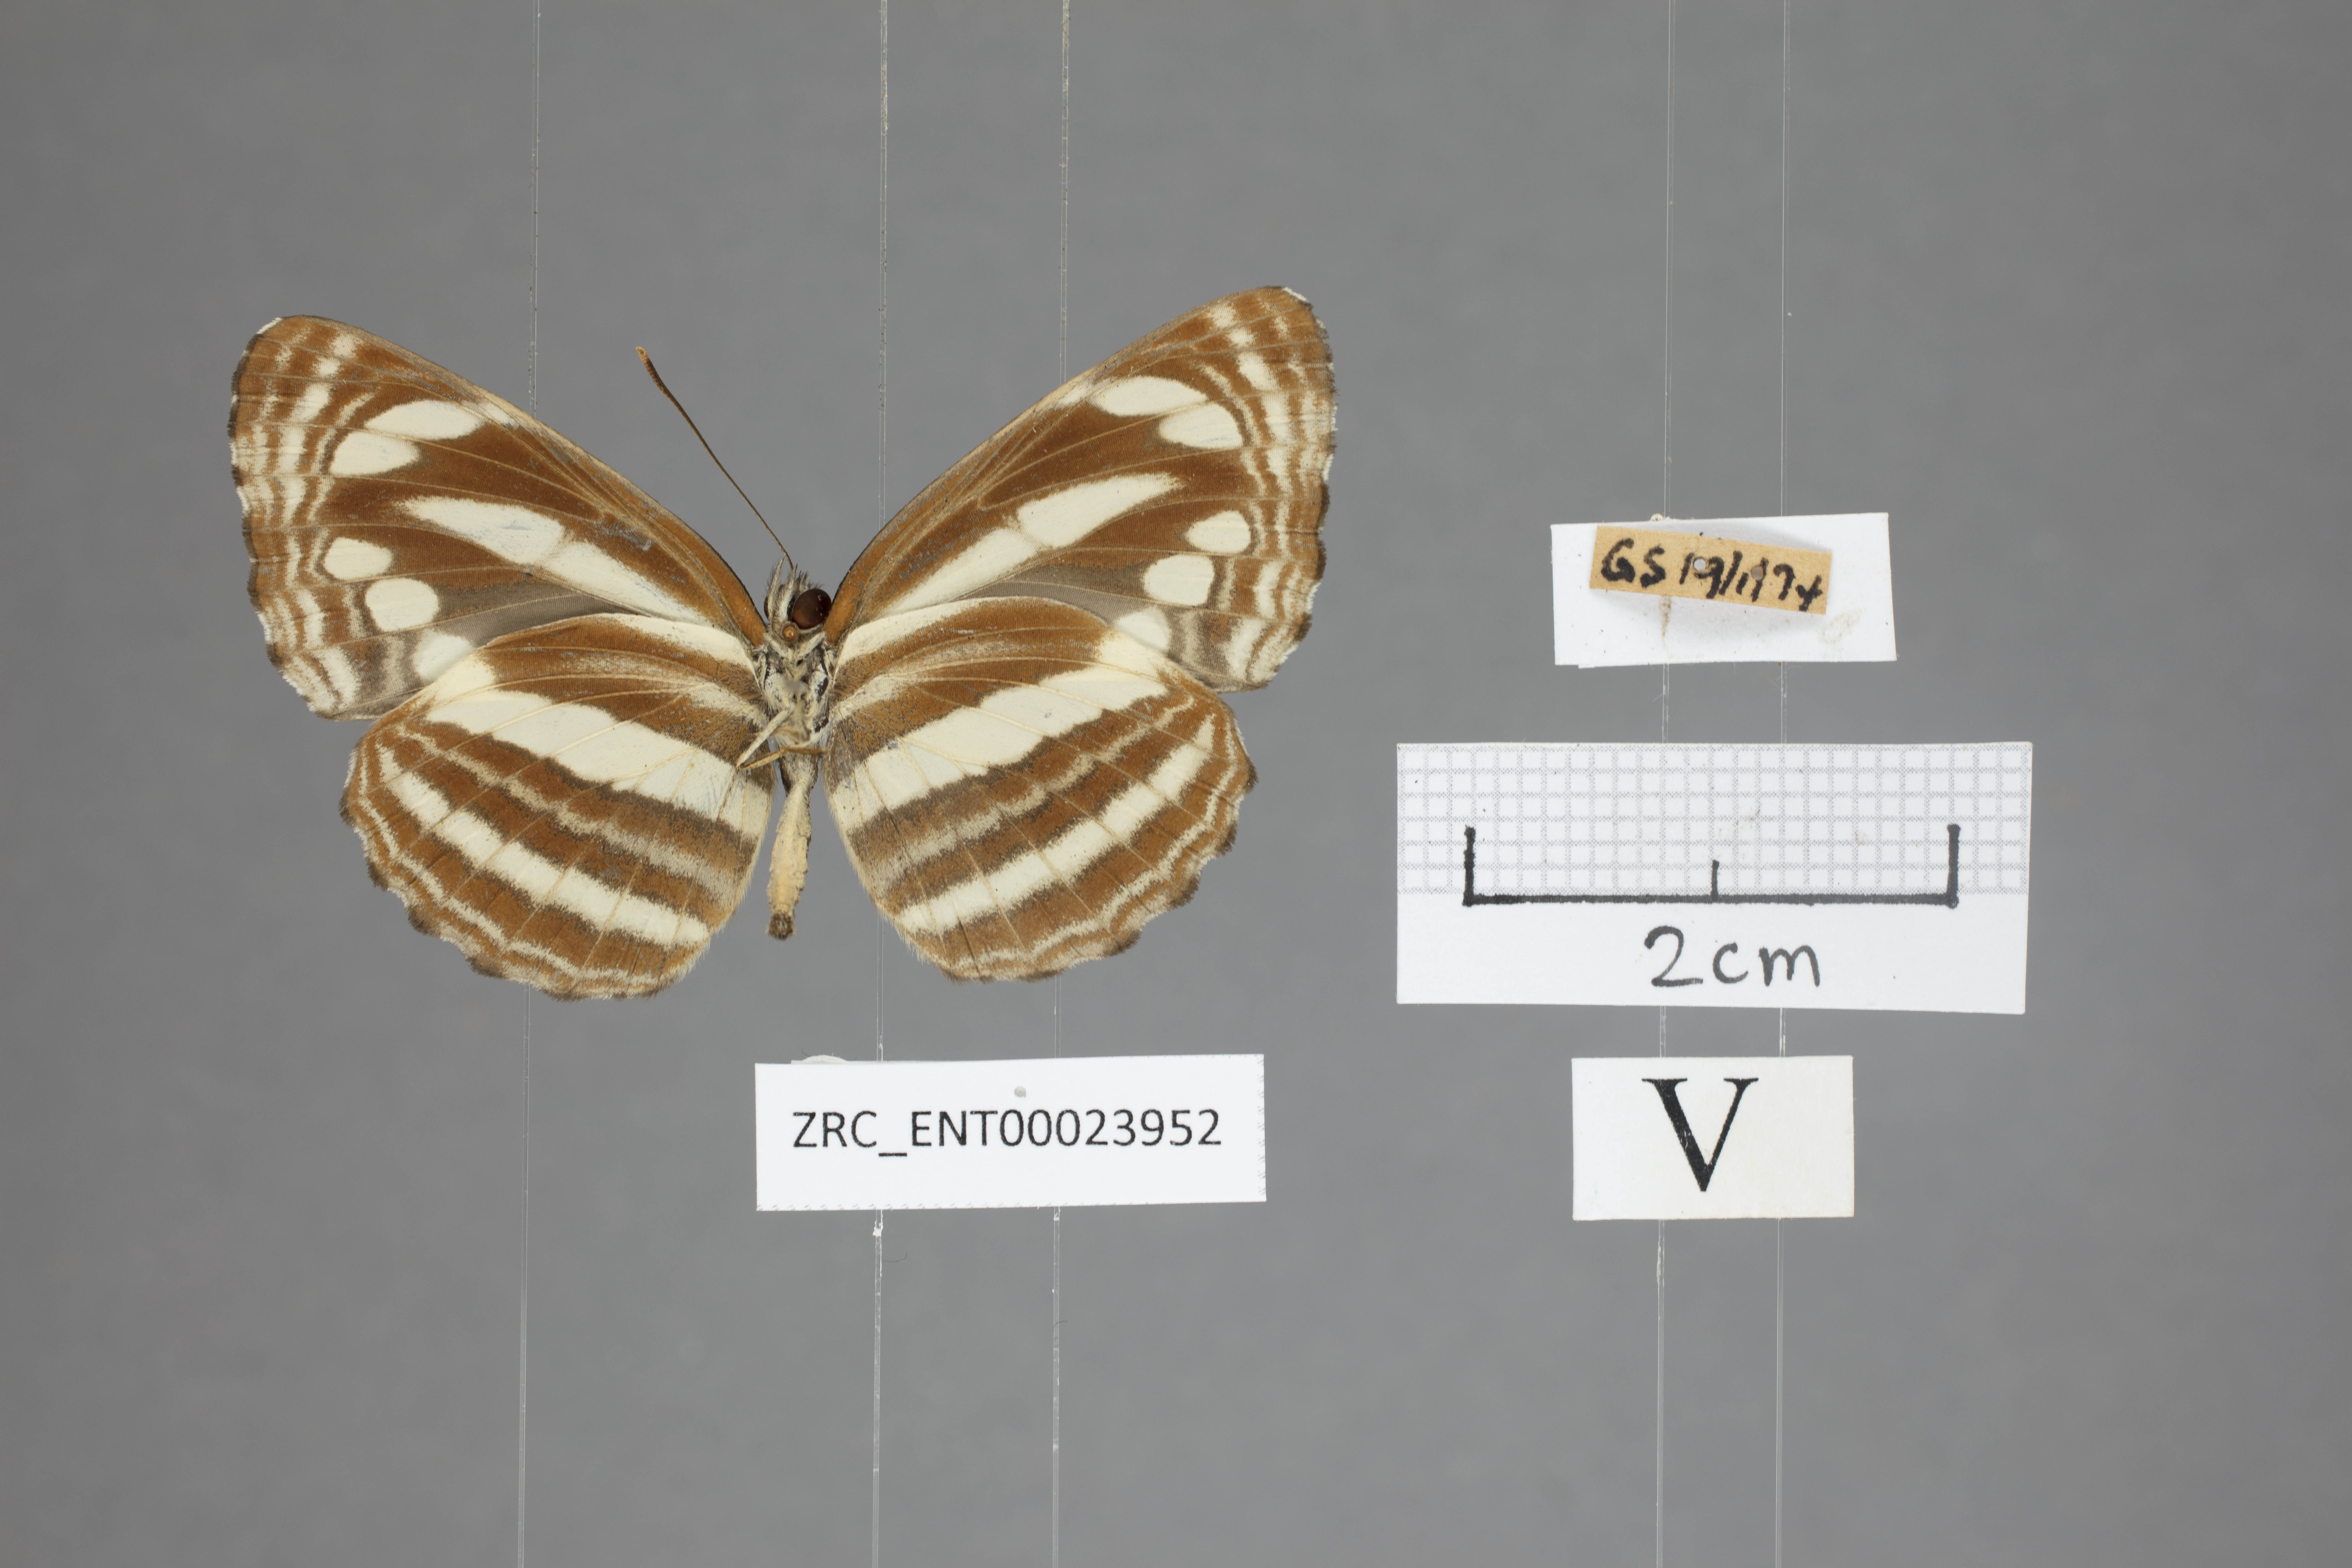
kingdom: Animalia
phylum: Arthropoda
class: Insecta
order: Lepidoptera
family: Nymphalidae
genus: Neptis
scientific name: Neptis clinia
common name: Southern sullied sailer
